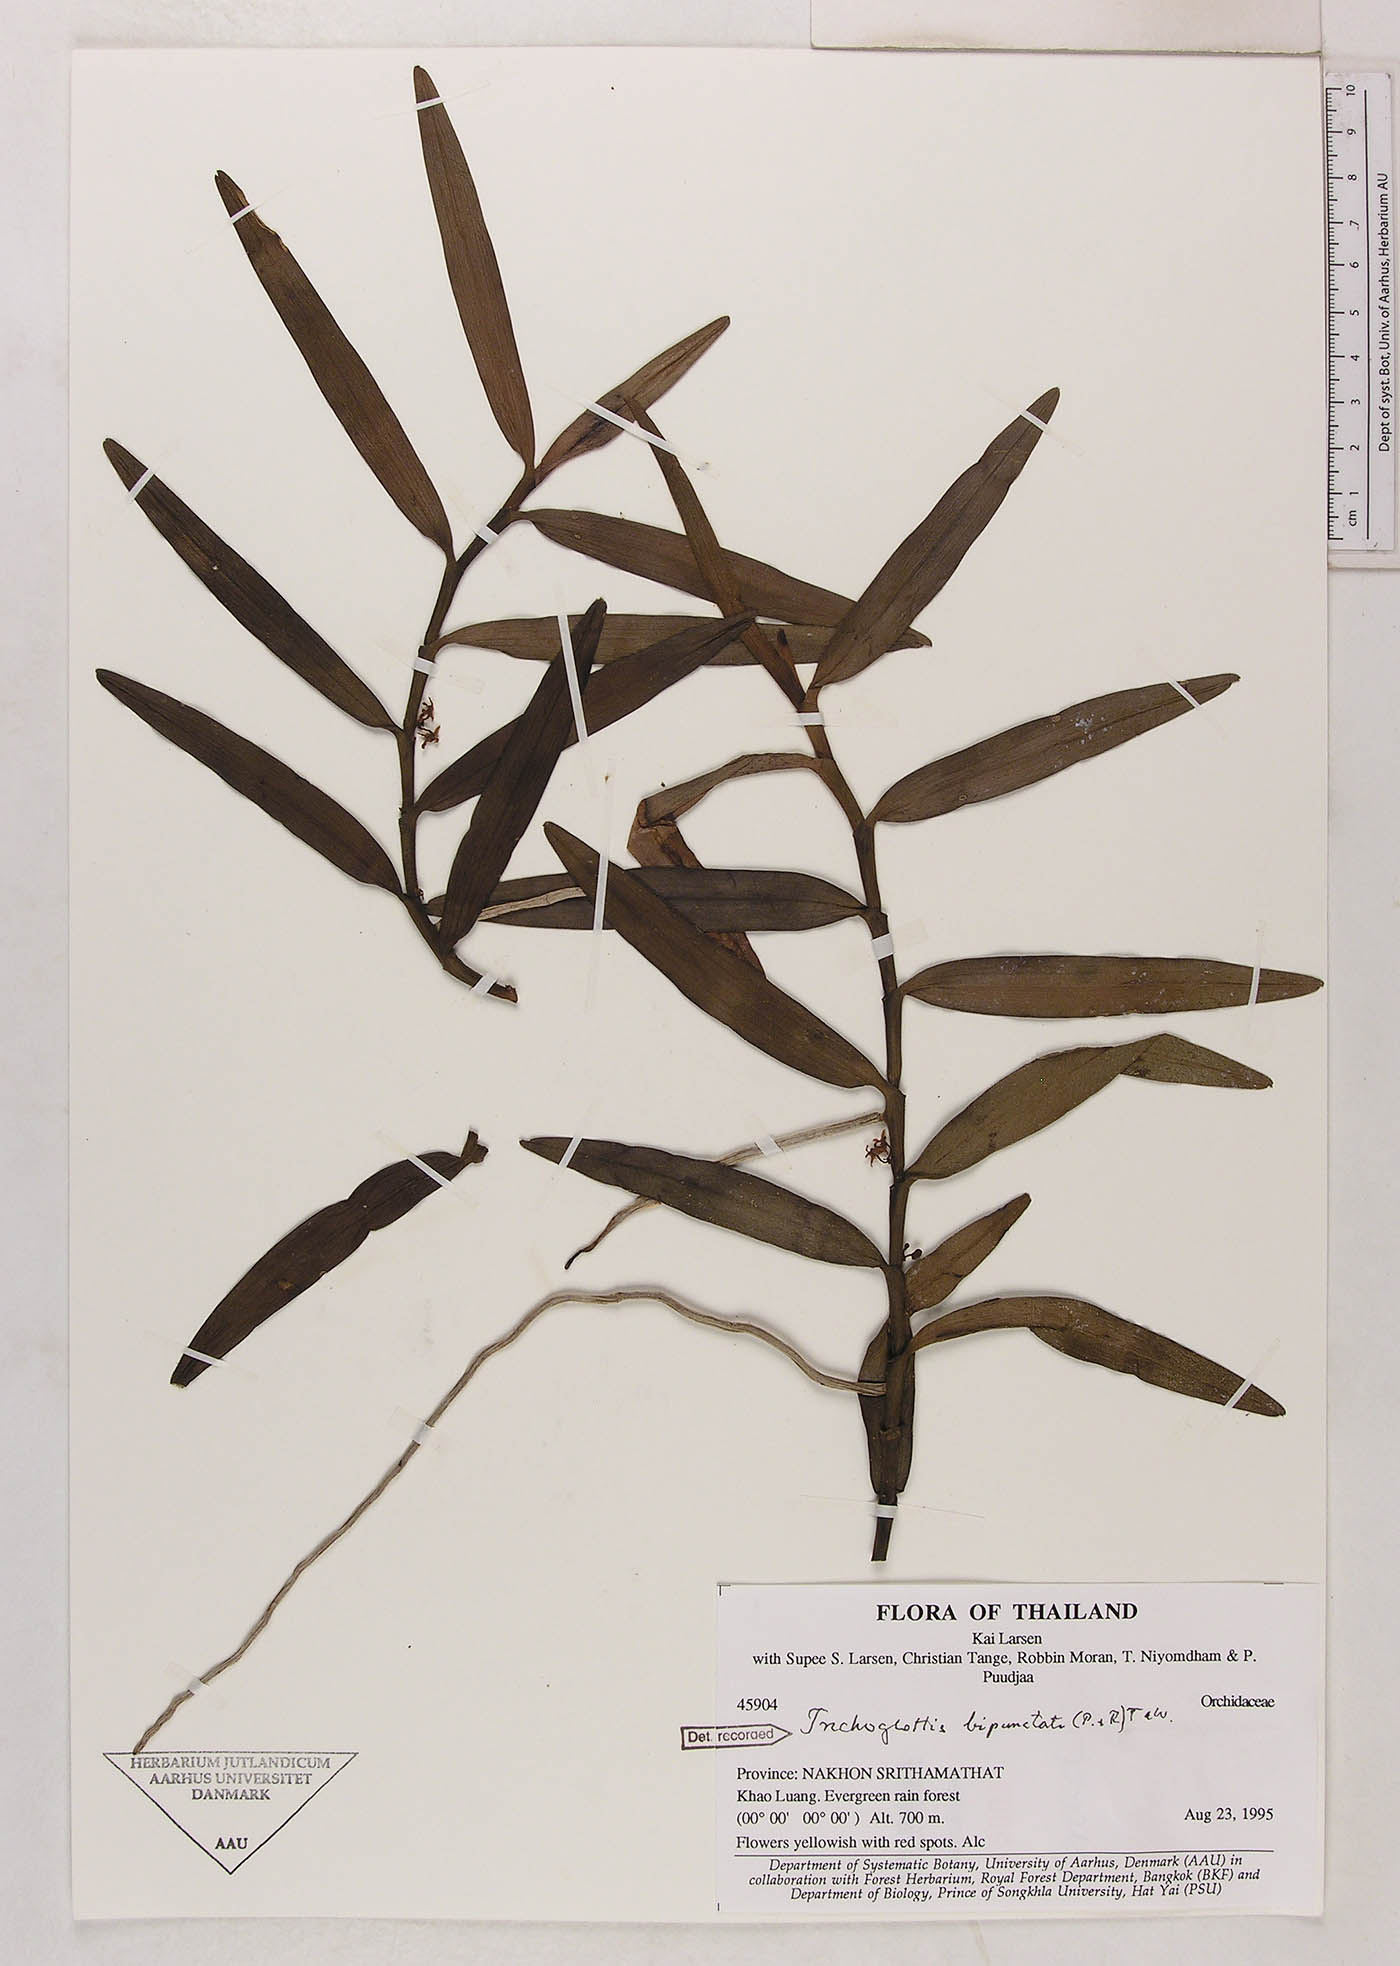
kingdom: Plantae
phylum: Tracheophyta
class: Liliopsida
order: Asparagales
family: Orchidaceae
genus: Trichoglottis
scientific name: Trichoglottis bipunctata
